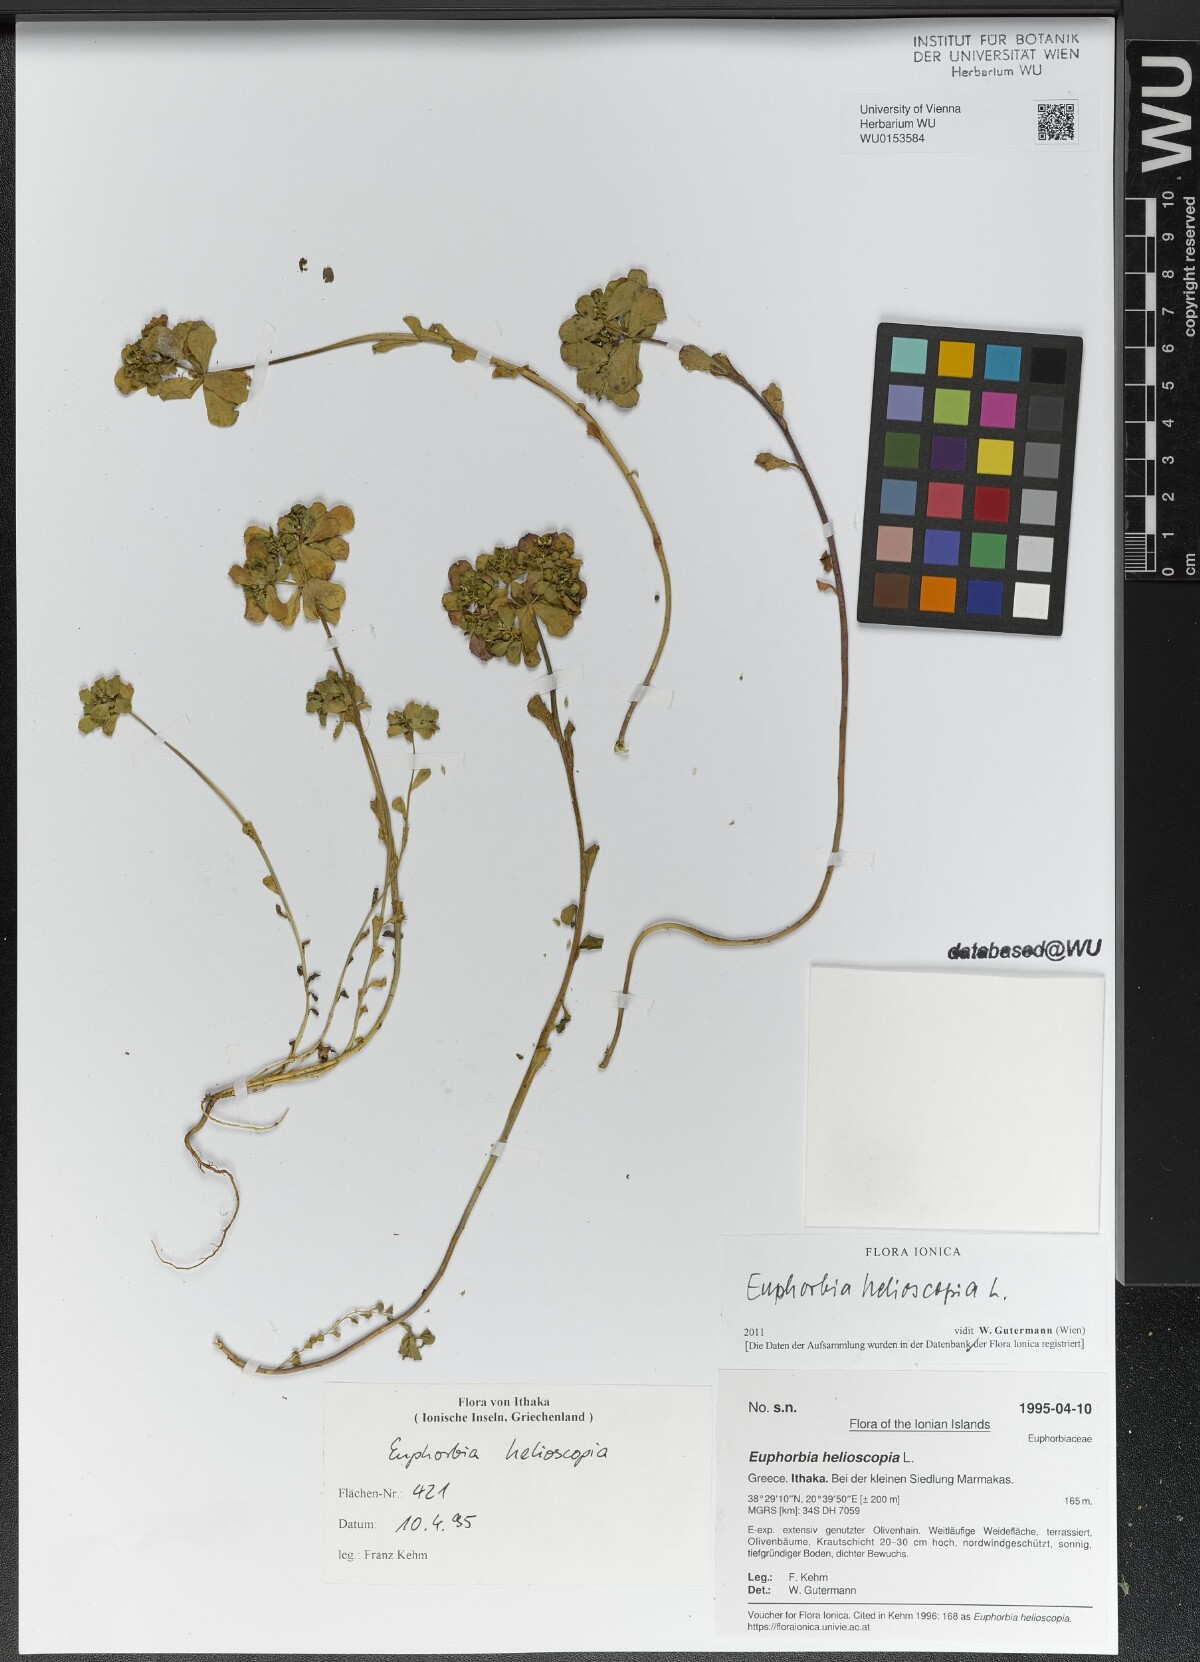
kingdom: Plantae
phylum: Tracheophyta
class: Magnoliopsida
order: Malpighiales
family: Euphorbiaceae
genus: Euphorbia
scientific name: Euphorbia helioscopia
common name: Sun spurge
